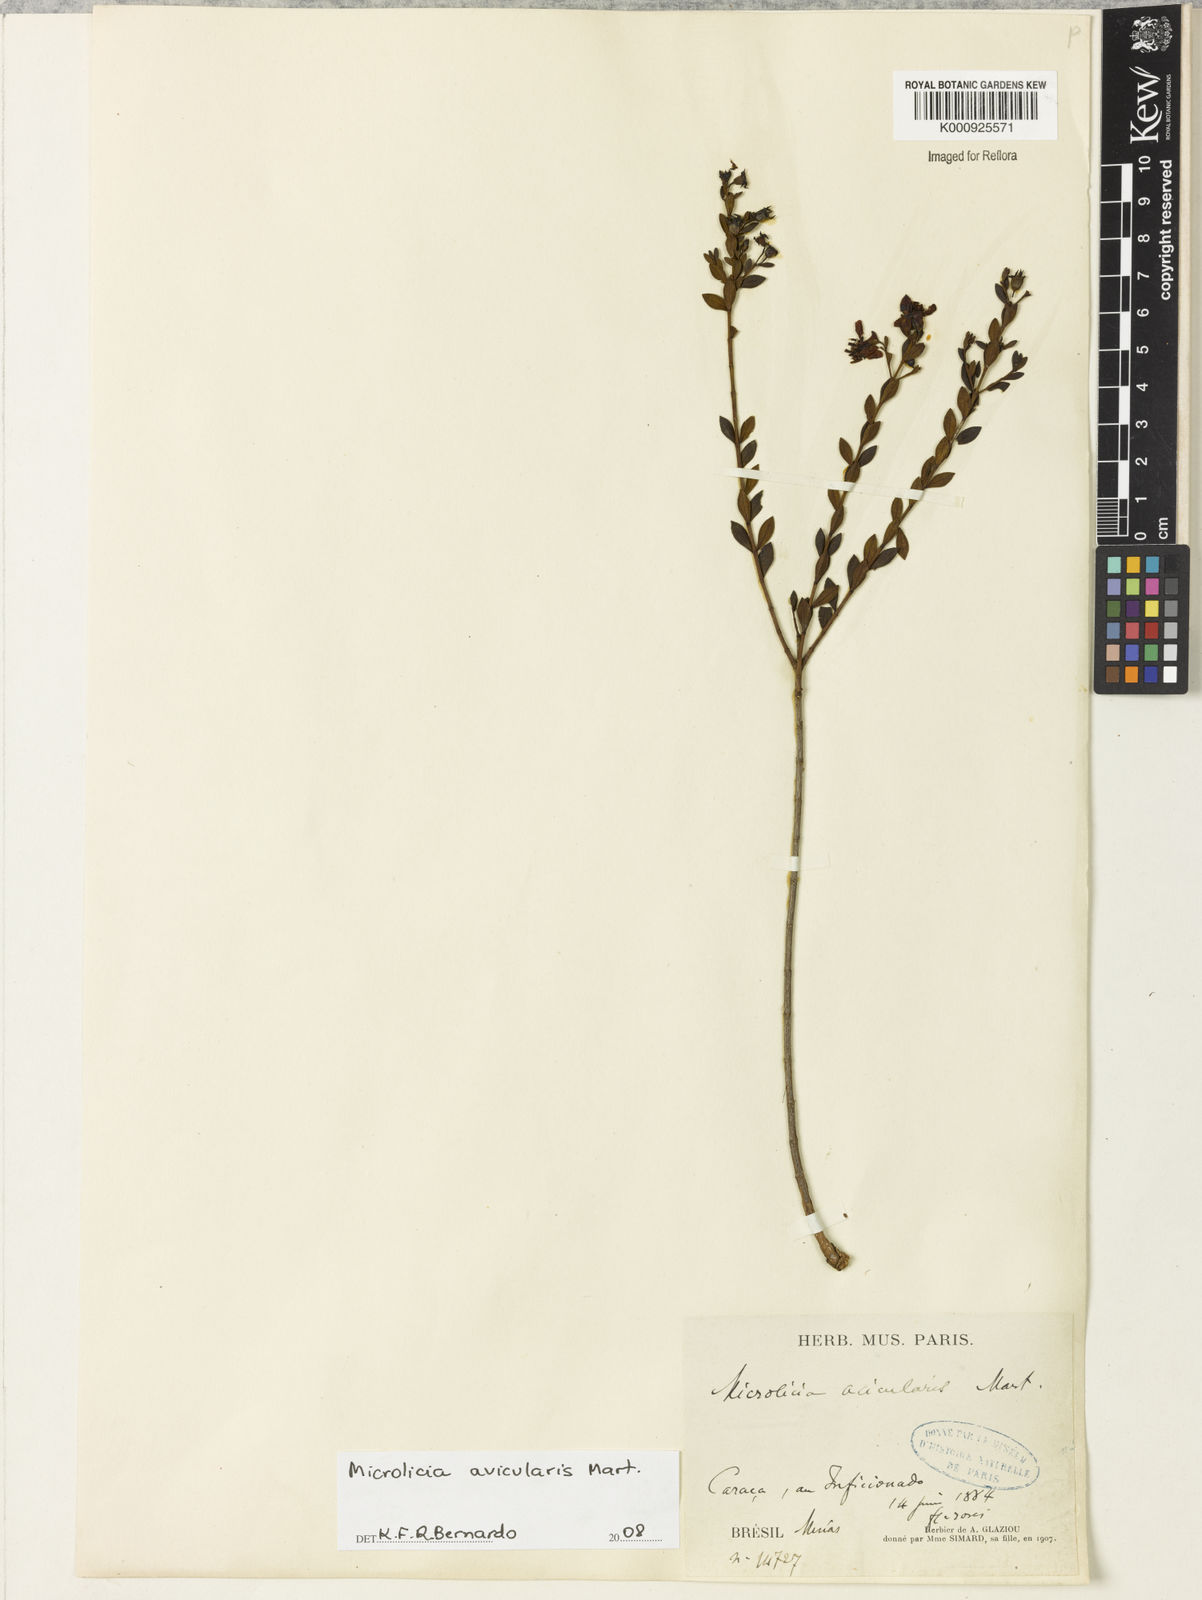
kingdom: Plantae
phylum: Tracheophyta
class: Magnoliopsida
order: Myrtales
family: Melastomataceae
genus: Microlicia
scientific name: Microlicia avicularis
